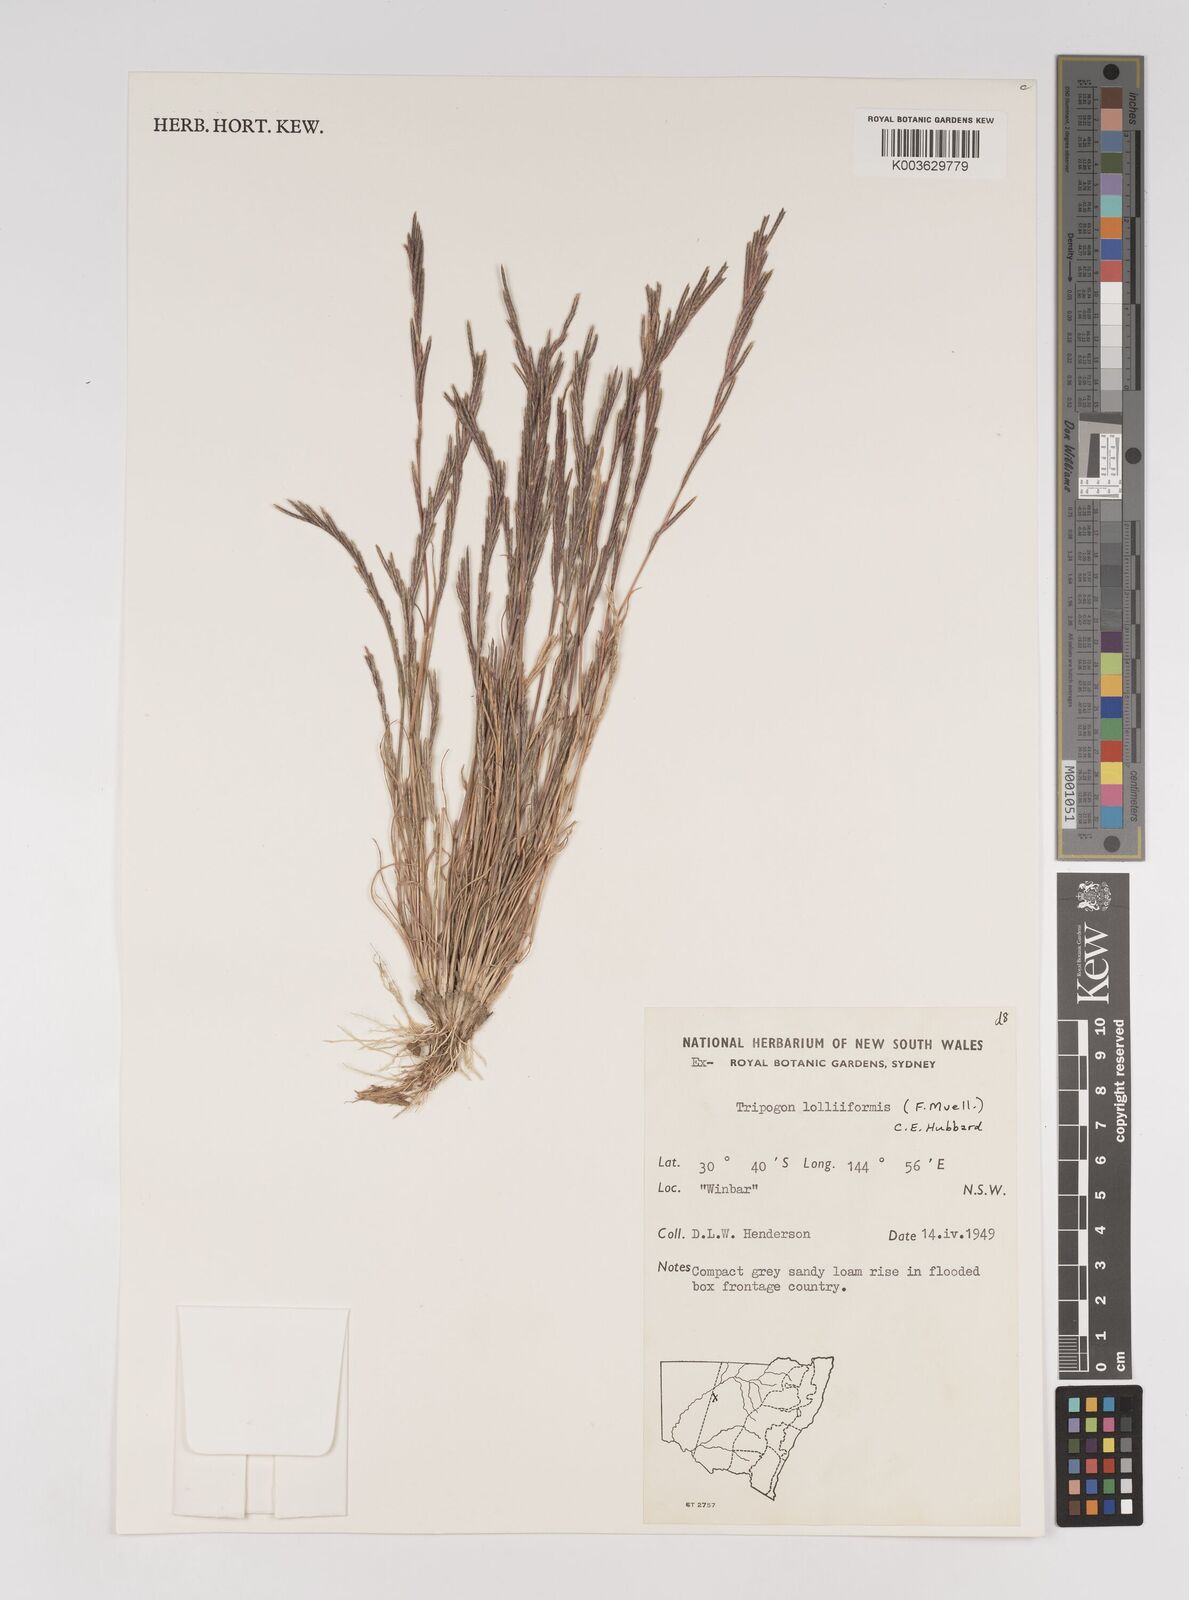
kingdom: Plantae
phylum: Tracheophyta
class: Liliopsida
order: Poales
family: Poaceae
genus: Tripogonella
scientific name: Tripogonella loliiformis
